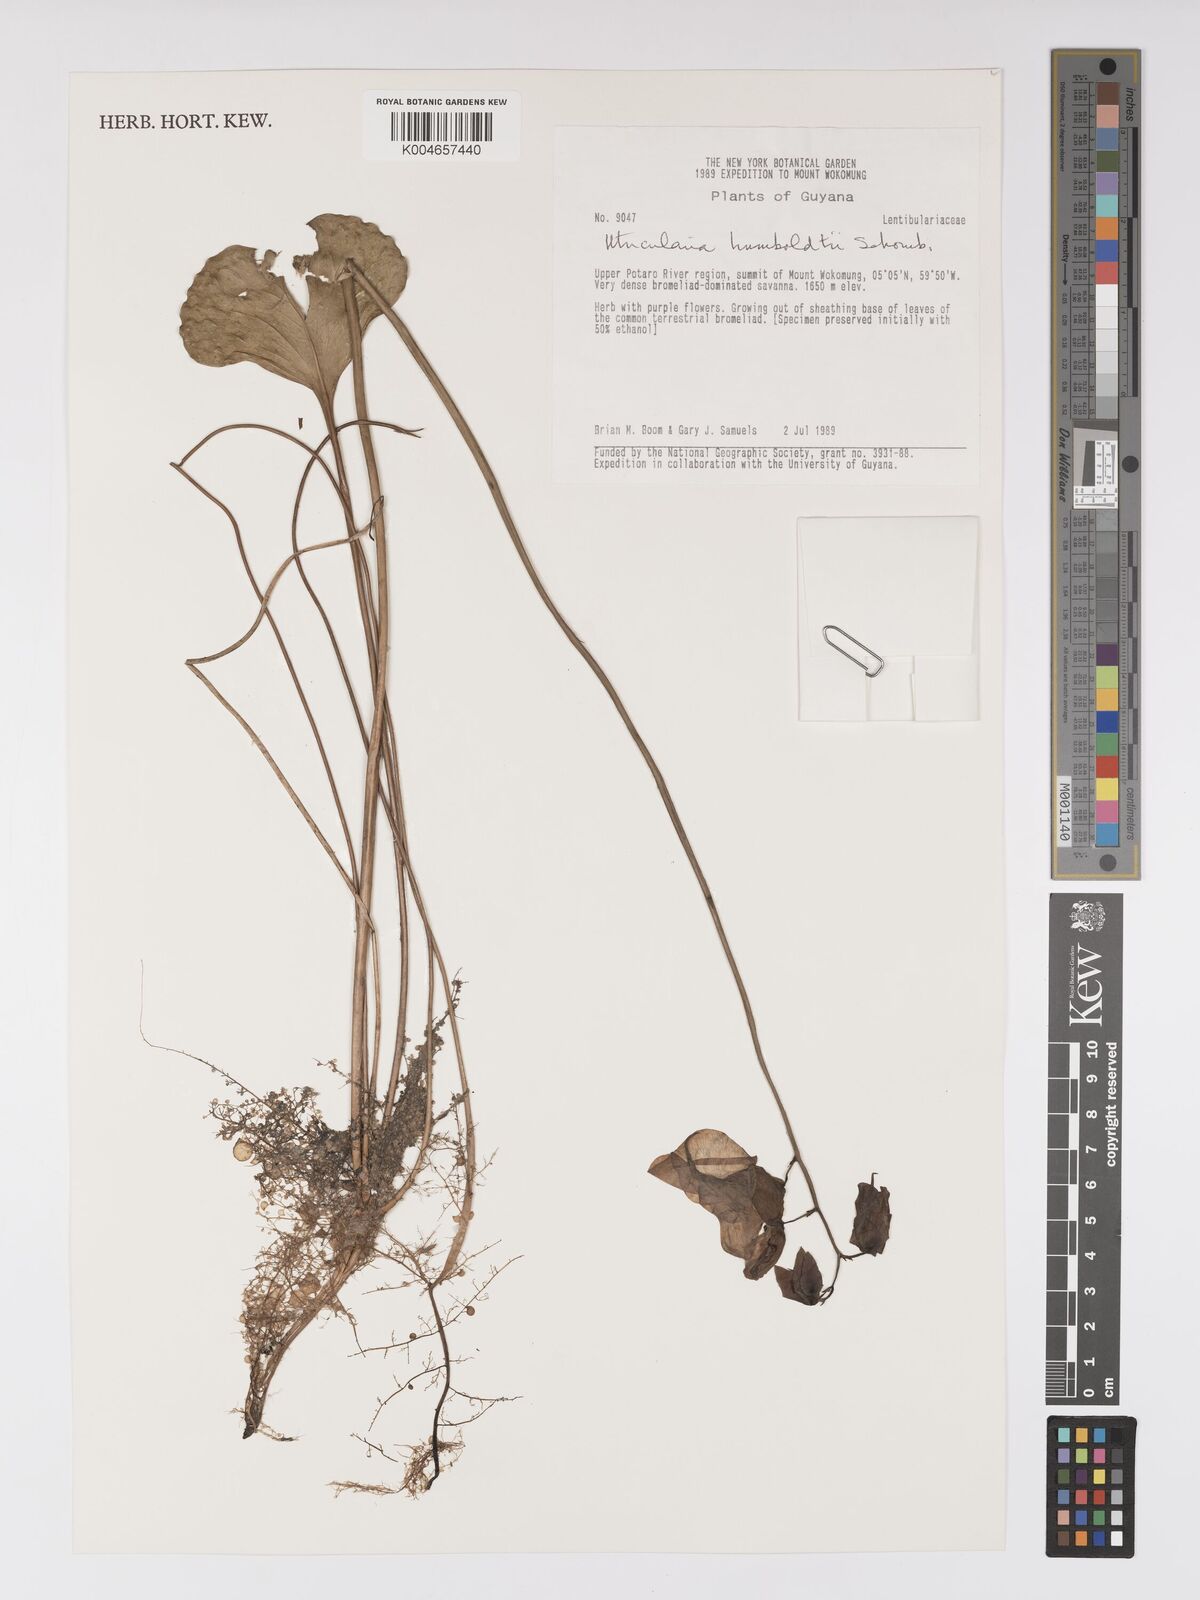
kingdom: Plantae
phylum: Tracheophyta
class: Magnoliopsida
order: Lamiales
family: Lentibulariaceae
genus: Utricularia
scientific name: Utricularia humboldtii
